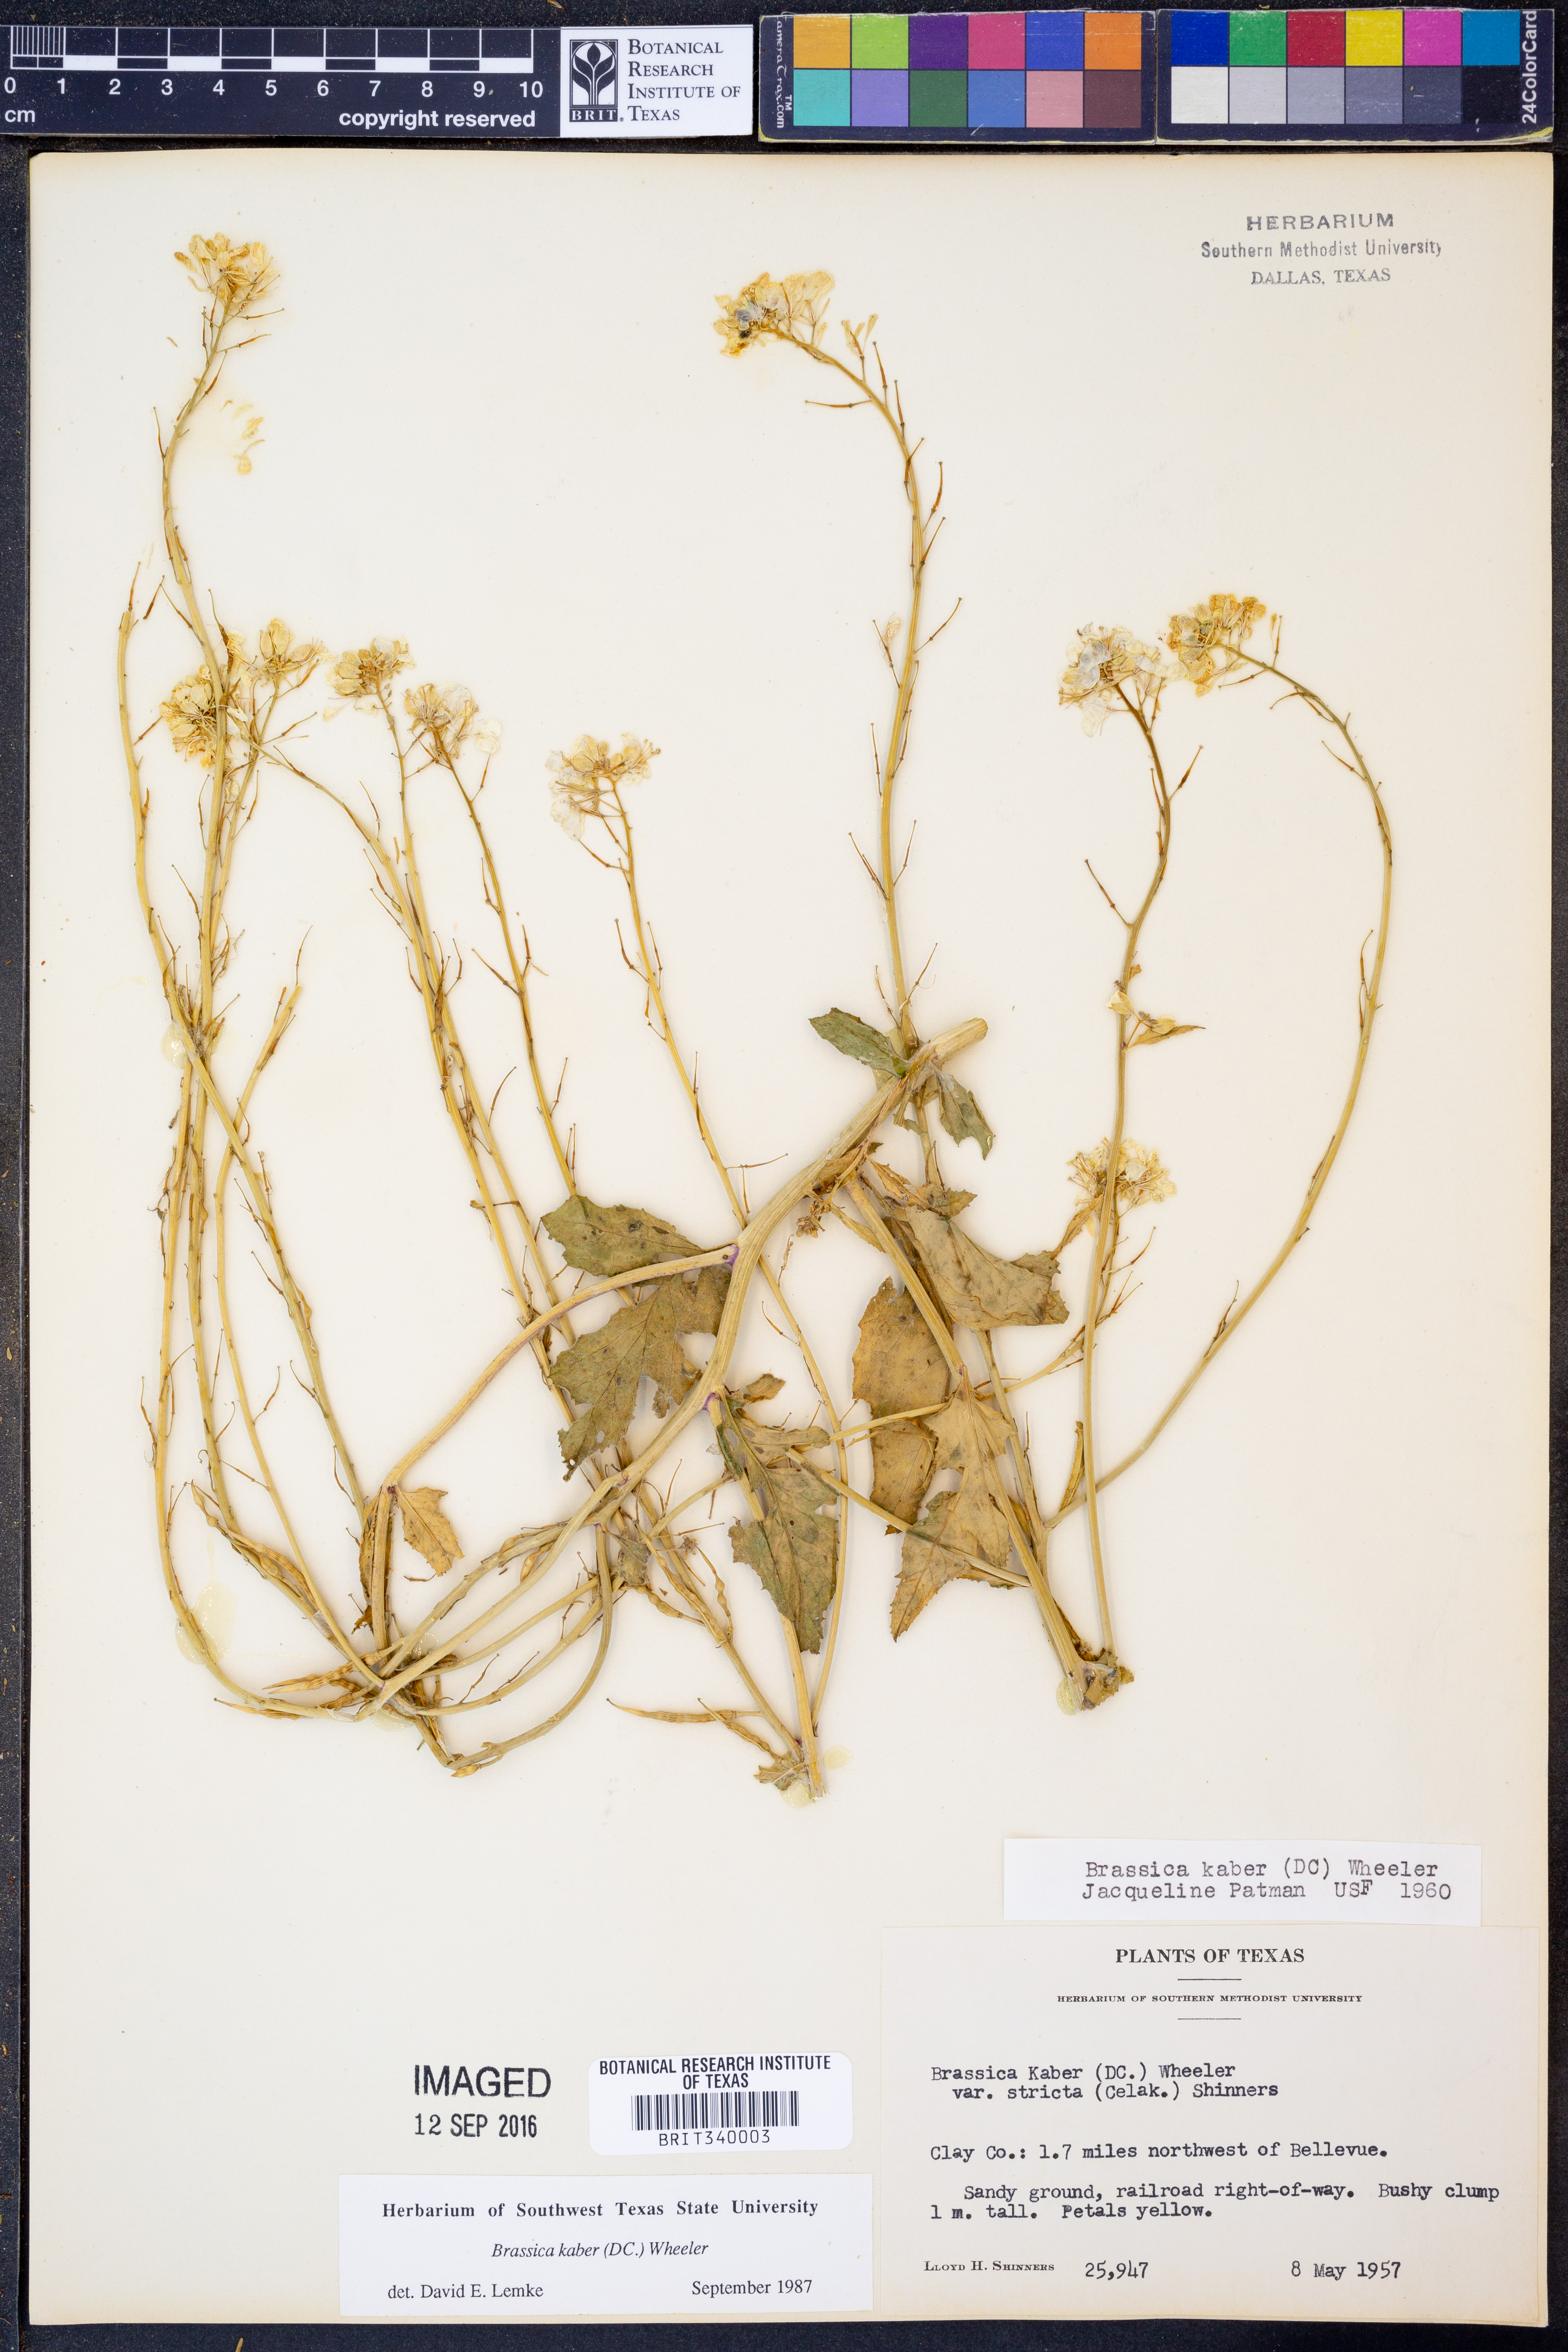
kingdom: Plantae
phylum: Tracheophyta
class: Magnoliopsida
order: Brassicales
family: Brassicaceae
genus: Sinapis
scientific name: Sinapis arvensis
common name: Charlock
